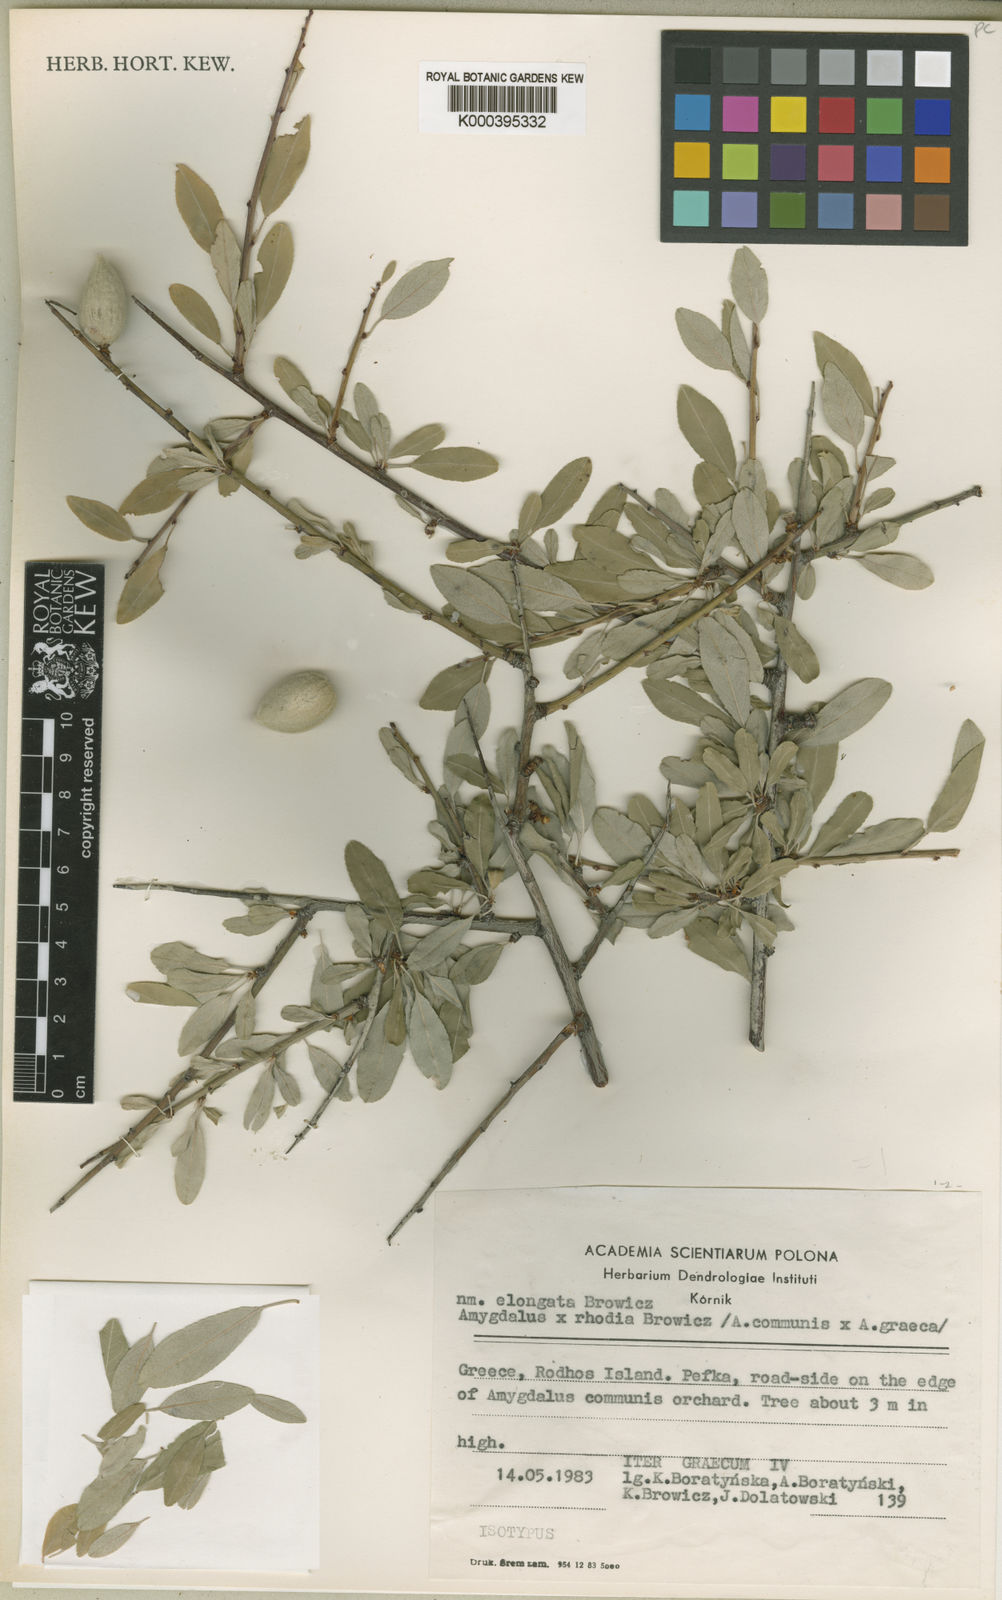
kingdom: Plantae
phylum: Tracheophyta
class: Magnoliopsida
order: Rosales
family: Rosaceae
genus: Prunus
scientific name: Prunus
